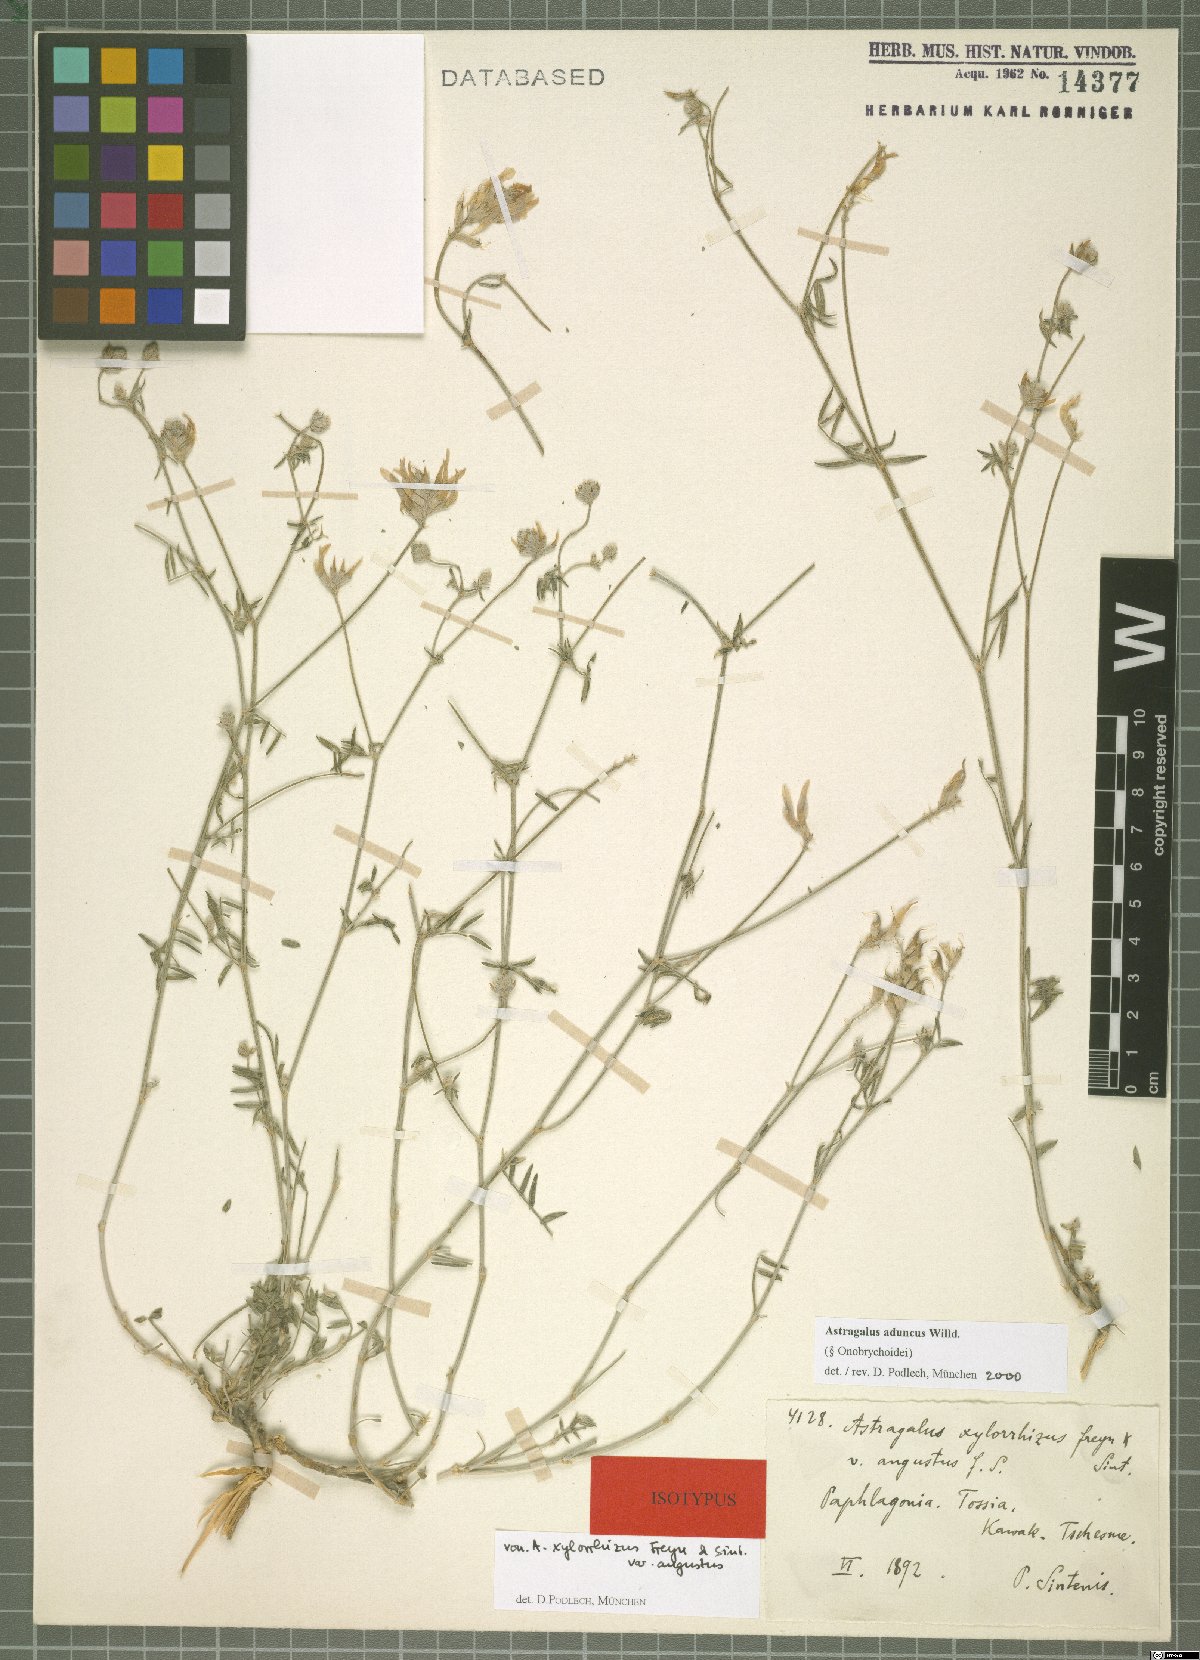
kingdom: Plantae
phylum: Tracheophyta
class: Magnoliopsida
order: Fabales
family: Fabaceae
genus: Astragalus
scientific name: Astragalus aduncus
